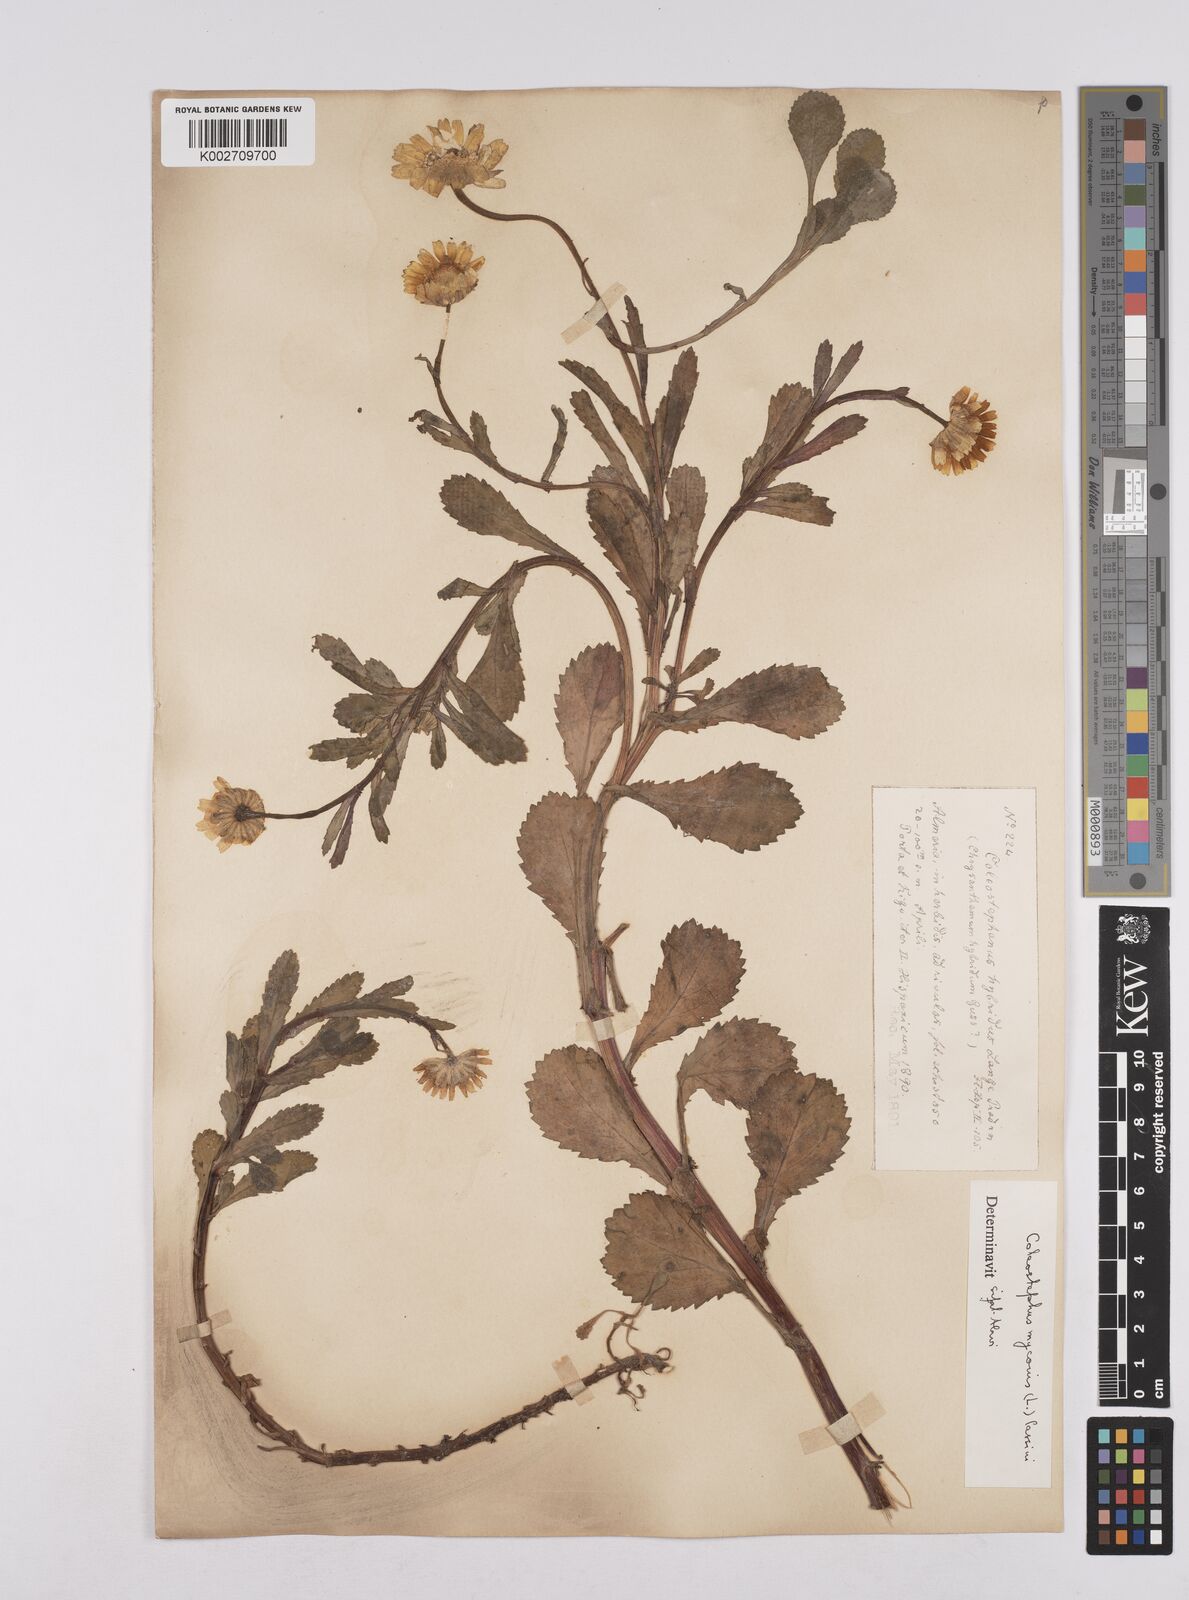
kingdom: Plantae
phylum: Tracheophyta
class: Magnoliopsida
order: Asterales
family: Asteraceae
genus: Coleostephus
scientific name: Coleostephus paludosus
